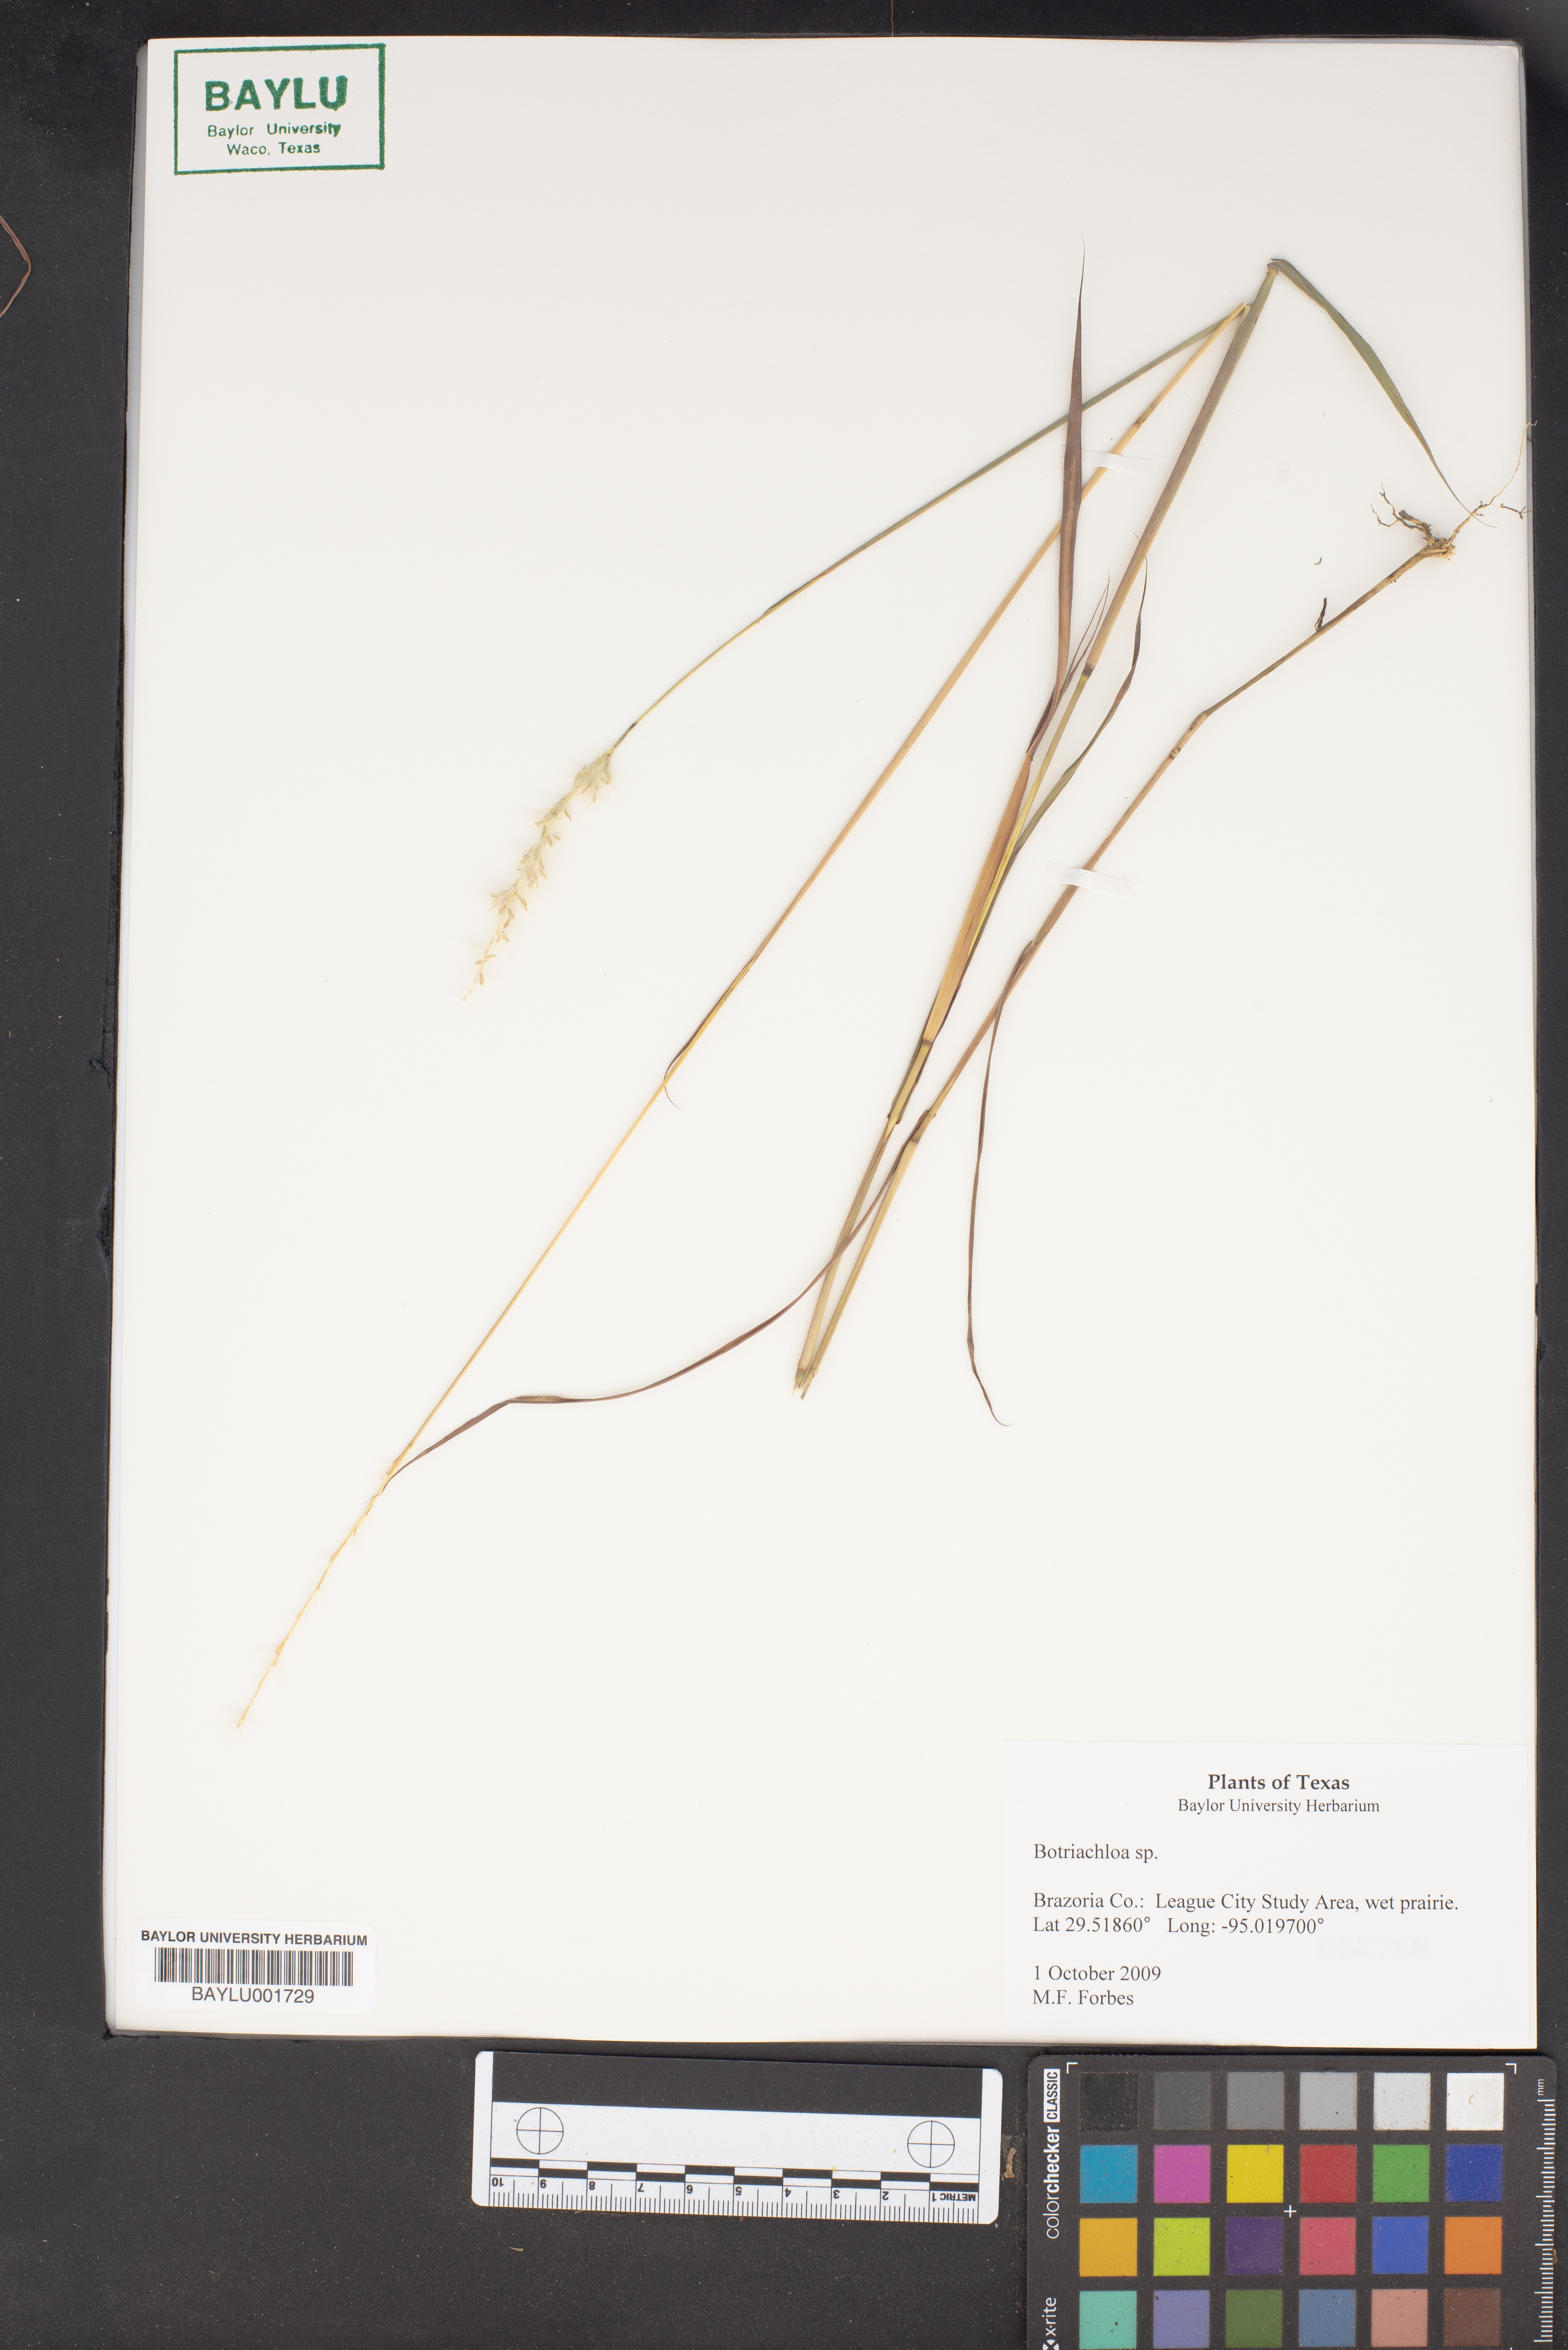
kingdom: Plantae
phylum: Tracheophyta
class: Liliopsida
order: Poales
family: Poaceae
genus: Bothriochloa
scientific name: Bothriochloa
